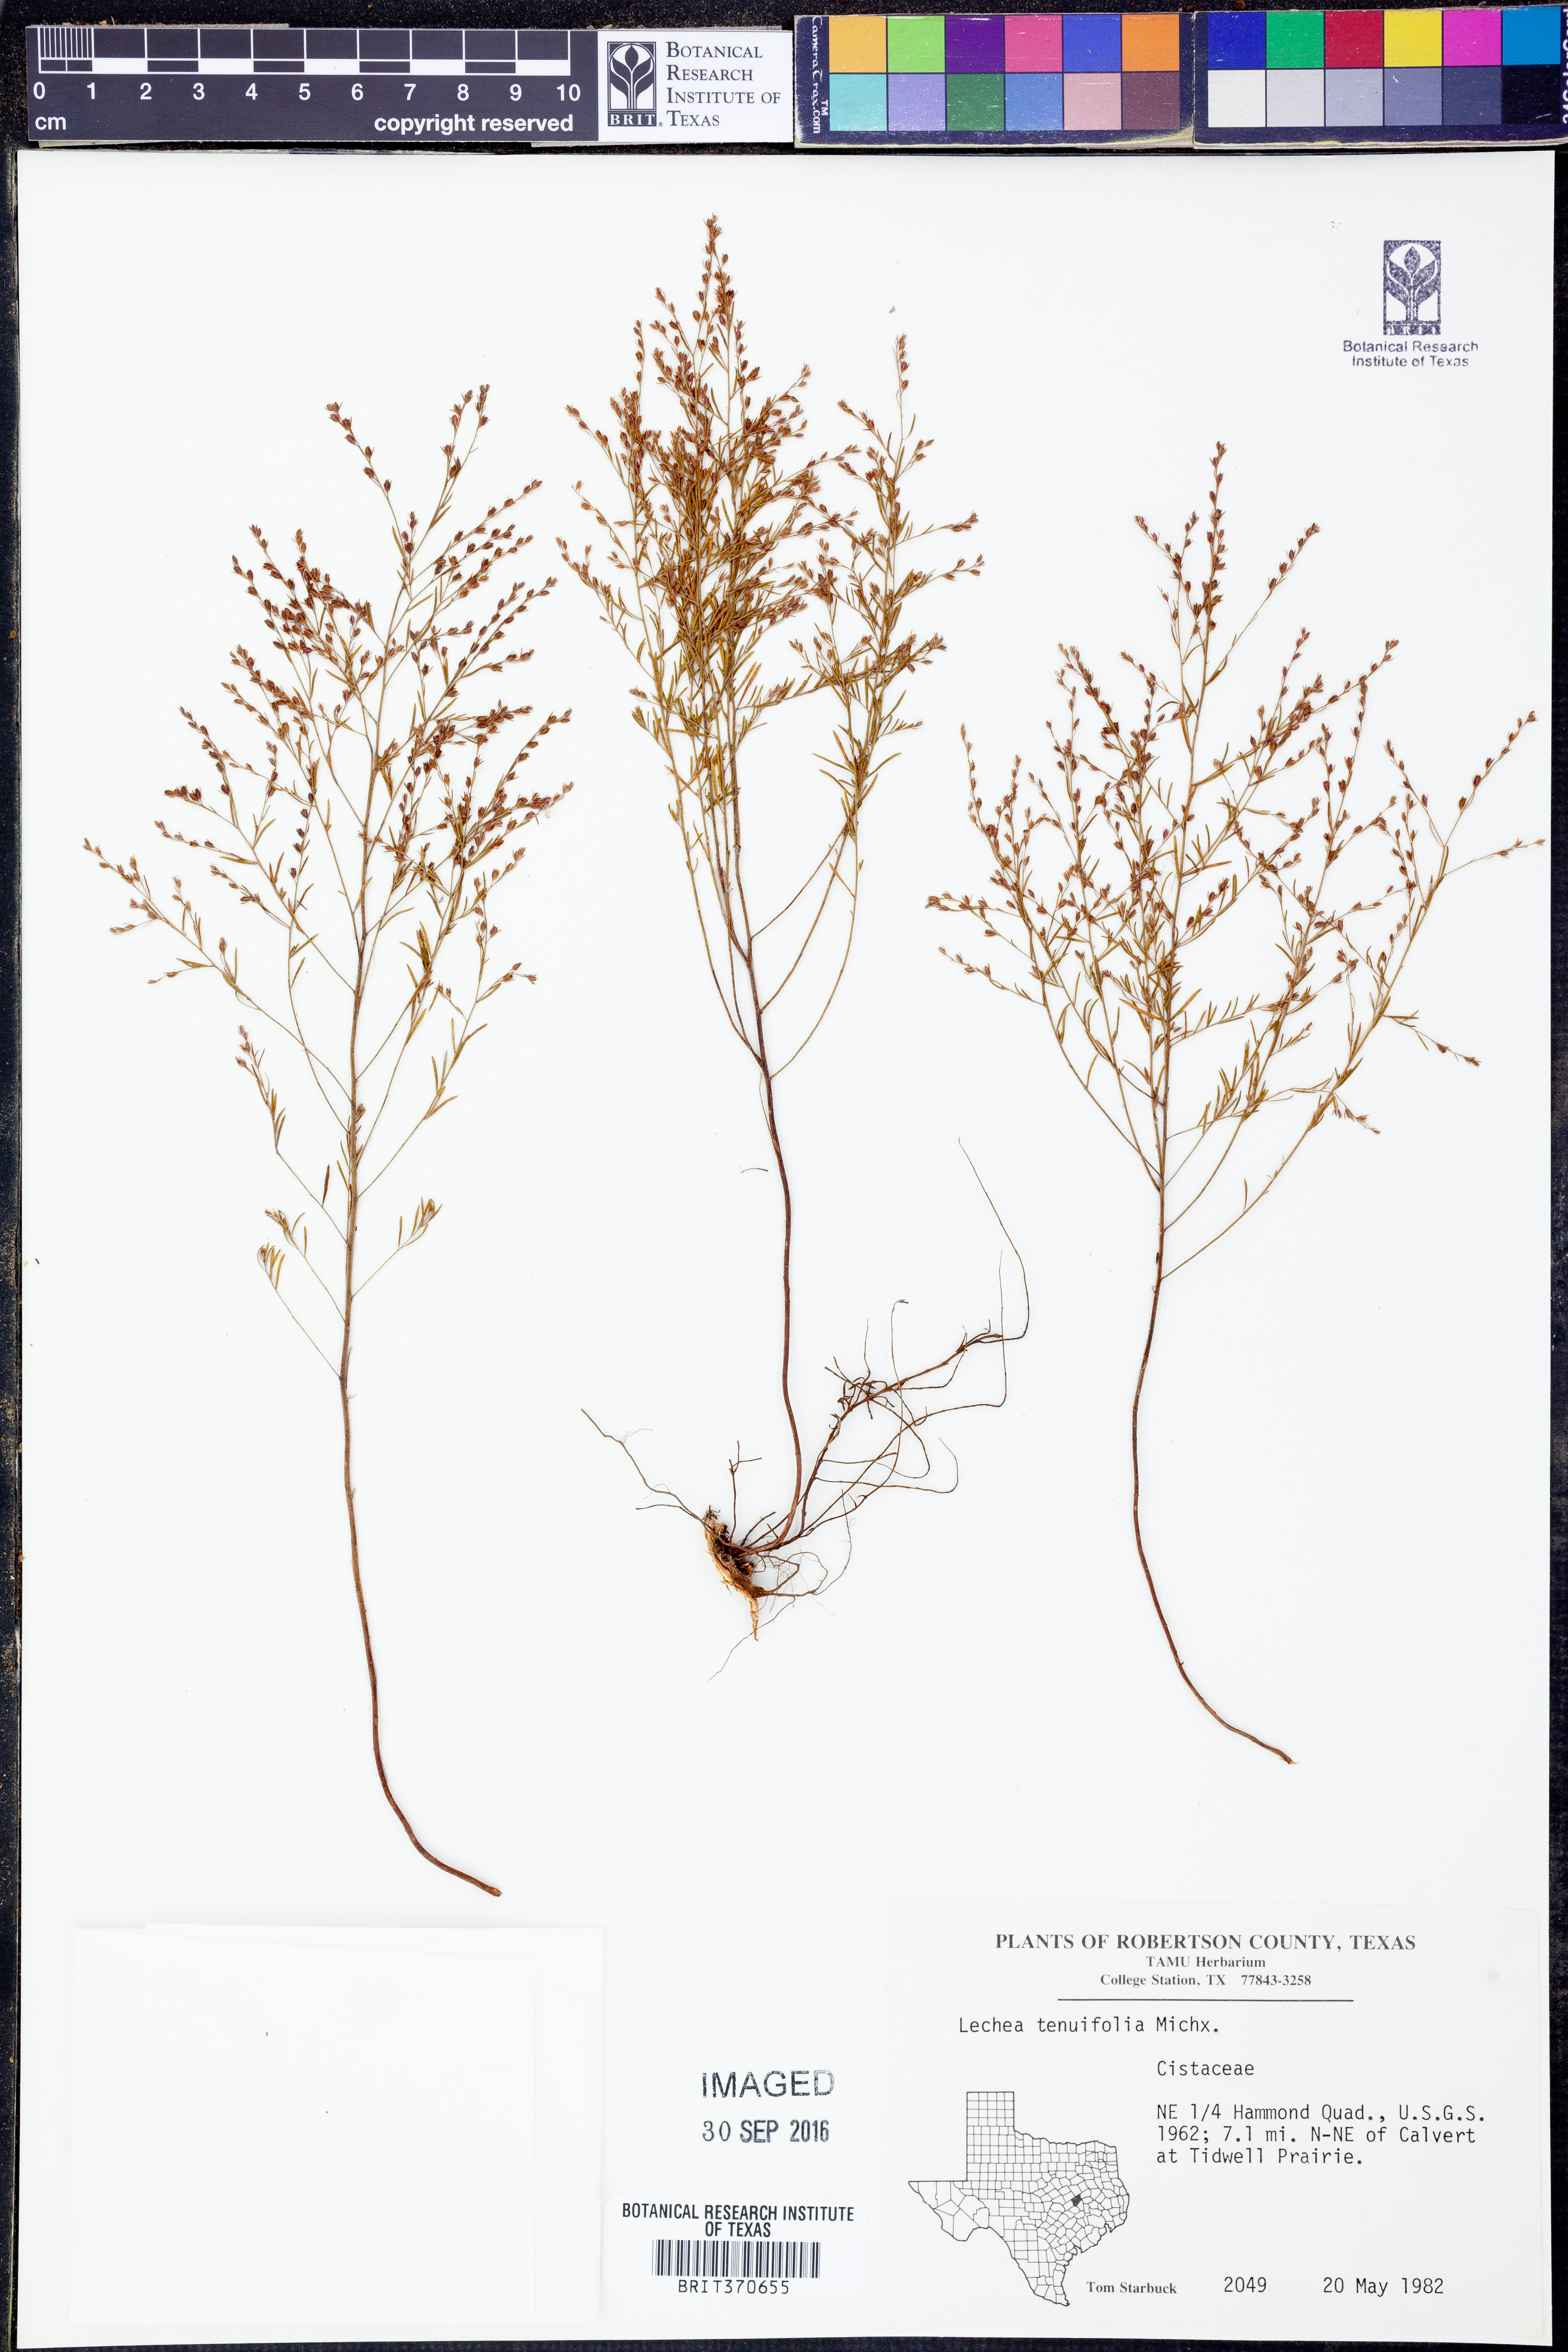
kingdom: Plantae
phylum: Tracheophyta
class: Magnoliopsida
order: Malvales
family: Cistaceae
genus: Lechea
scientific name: Lechea tenuifolia
